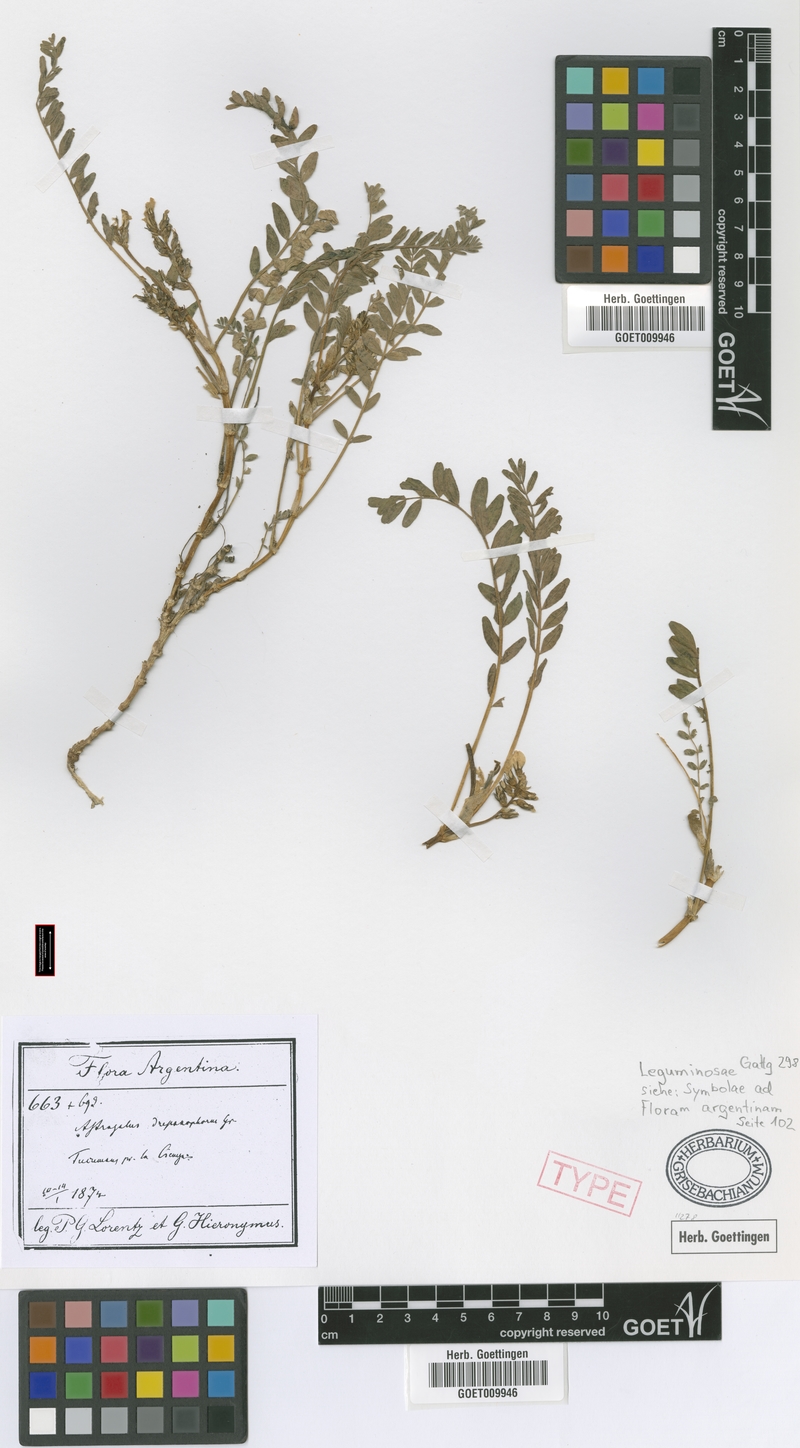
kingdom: Plantae
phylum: Tracheophyta
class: Magnoliopsida
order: Fabales
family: Fabaceae
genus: Astragalus
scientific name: Astragalus arequipensis
